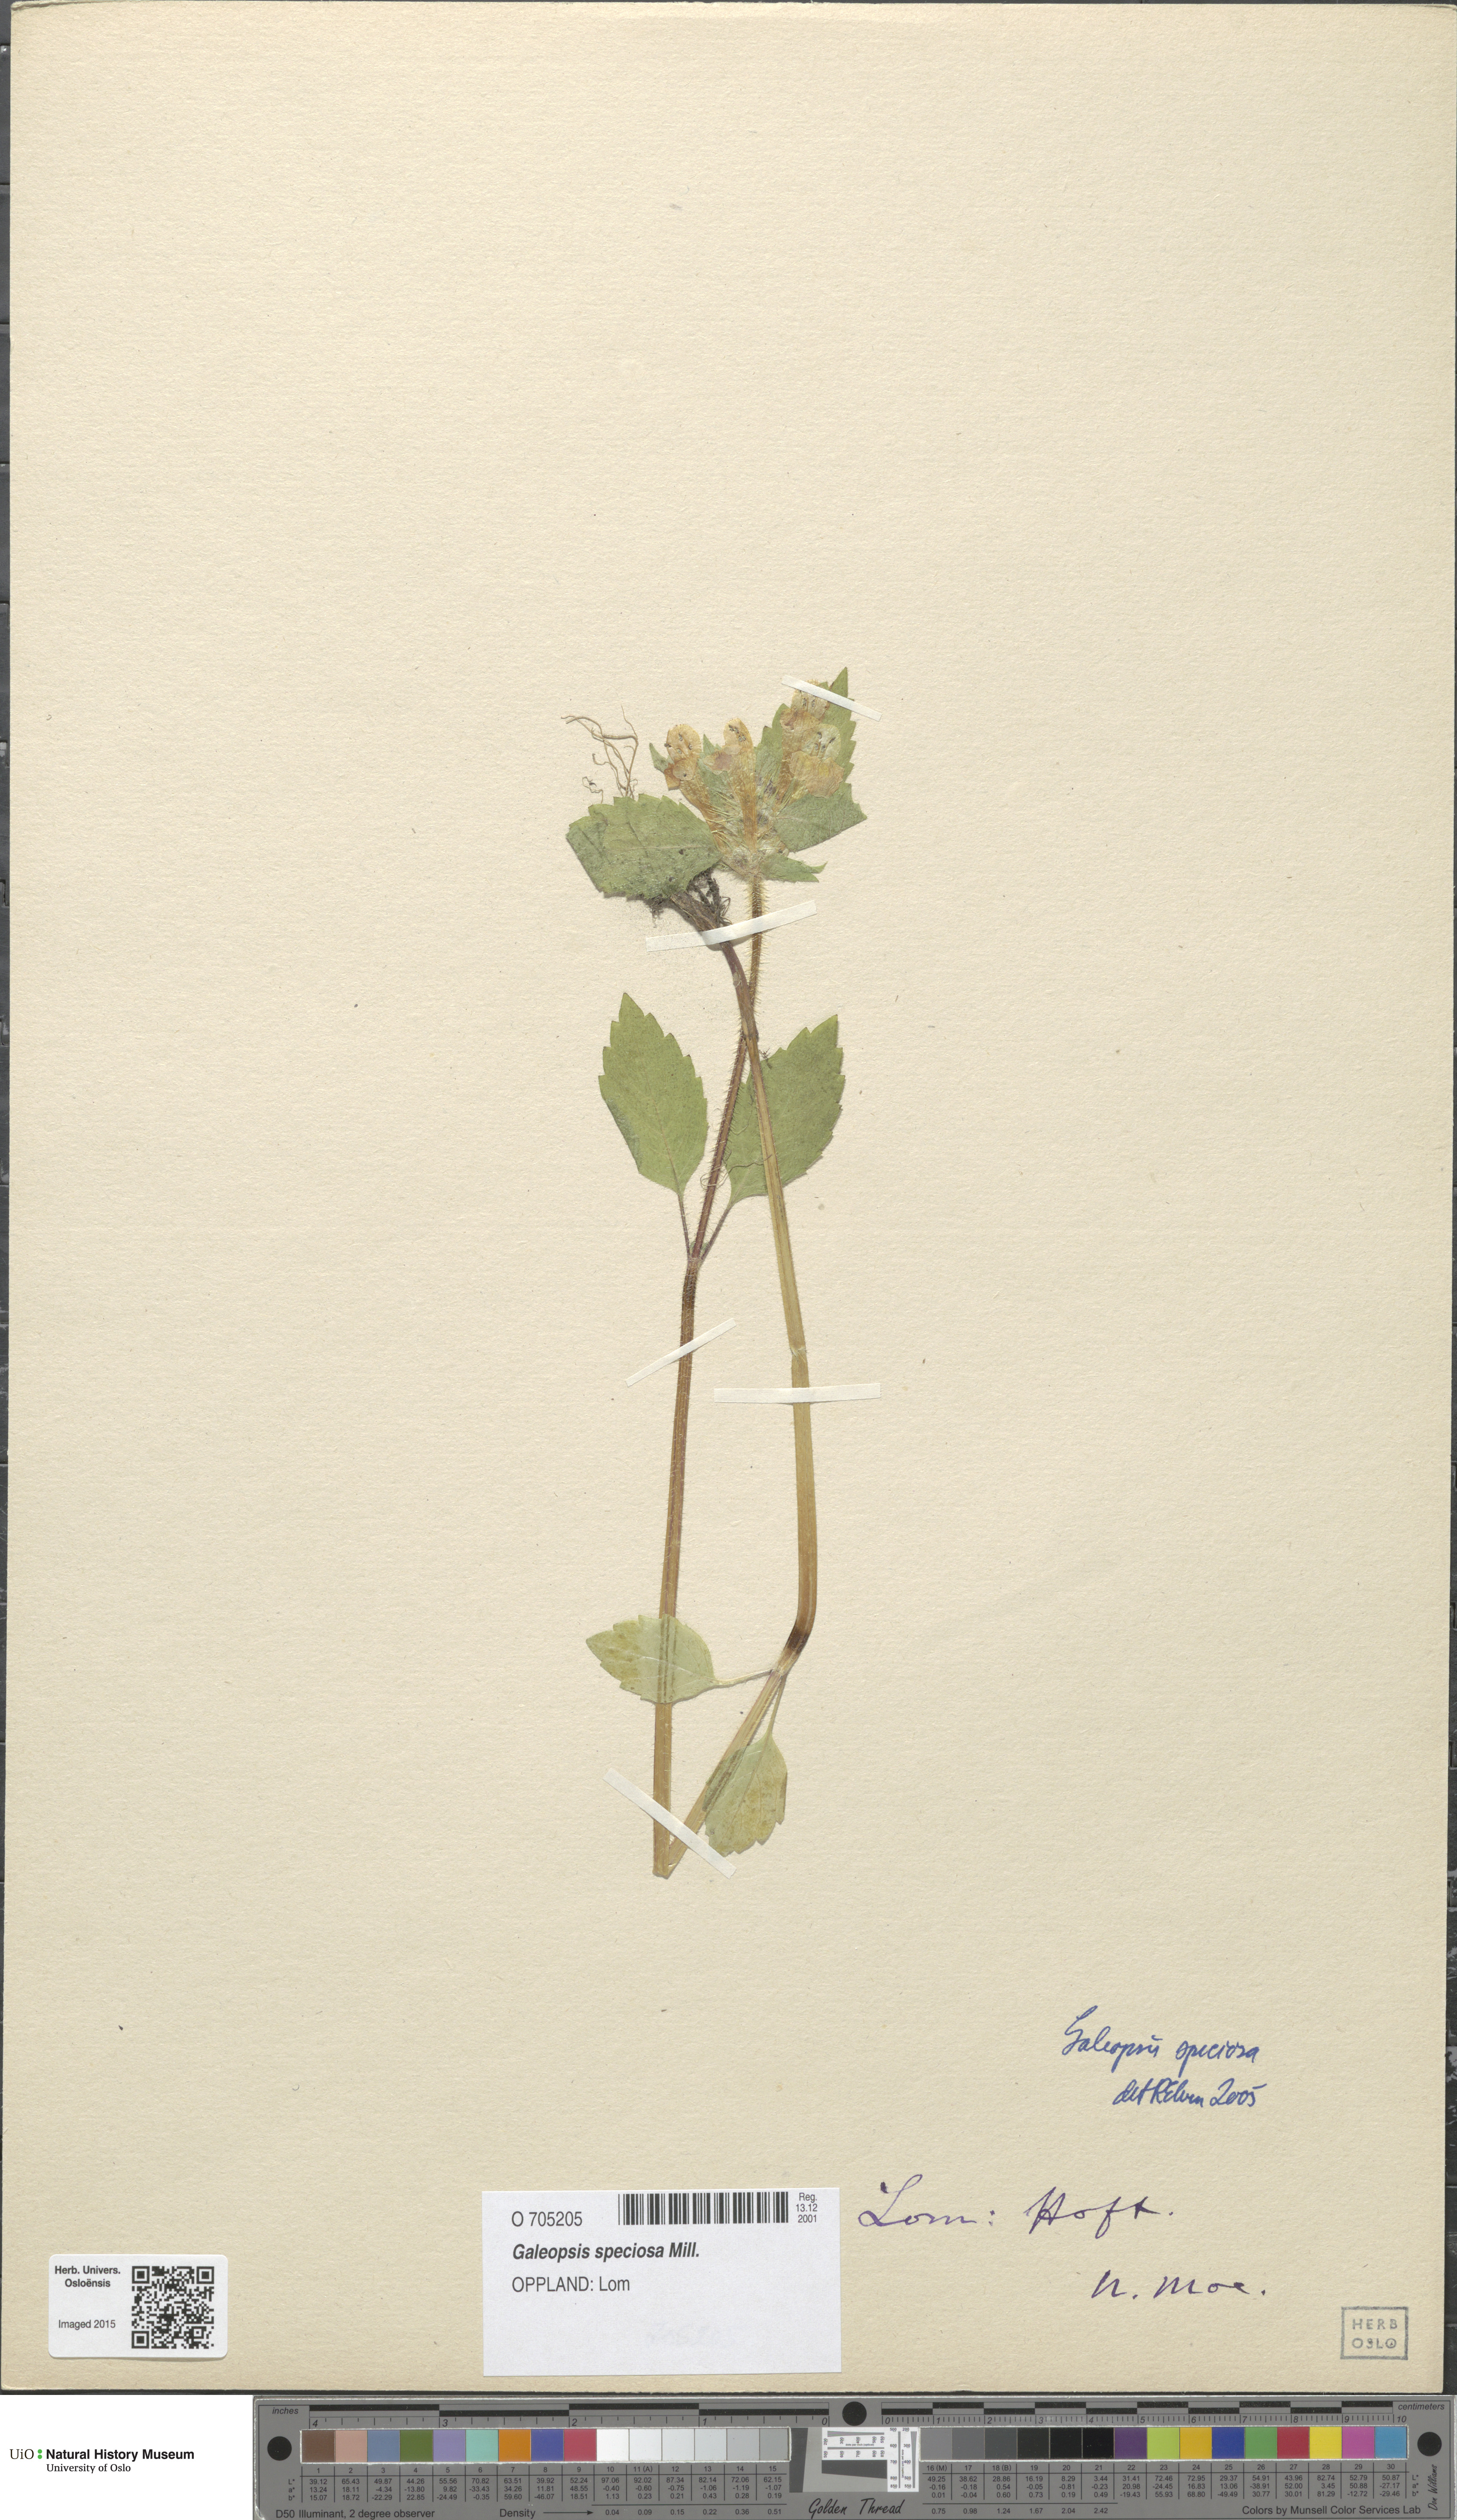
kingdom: Plantae
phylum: Tracheophyta
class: Magnoliopsida
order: Lamiales
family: Lamiaceae
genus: Galeopsis
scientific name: Galeopsis speciosa
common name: Large-flowered hemp-nettle
